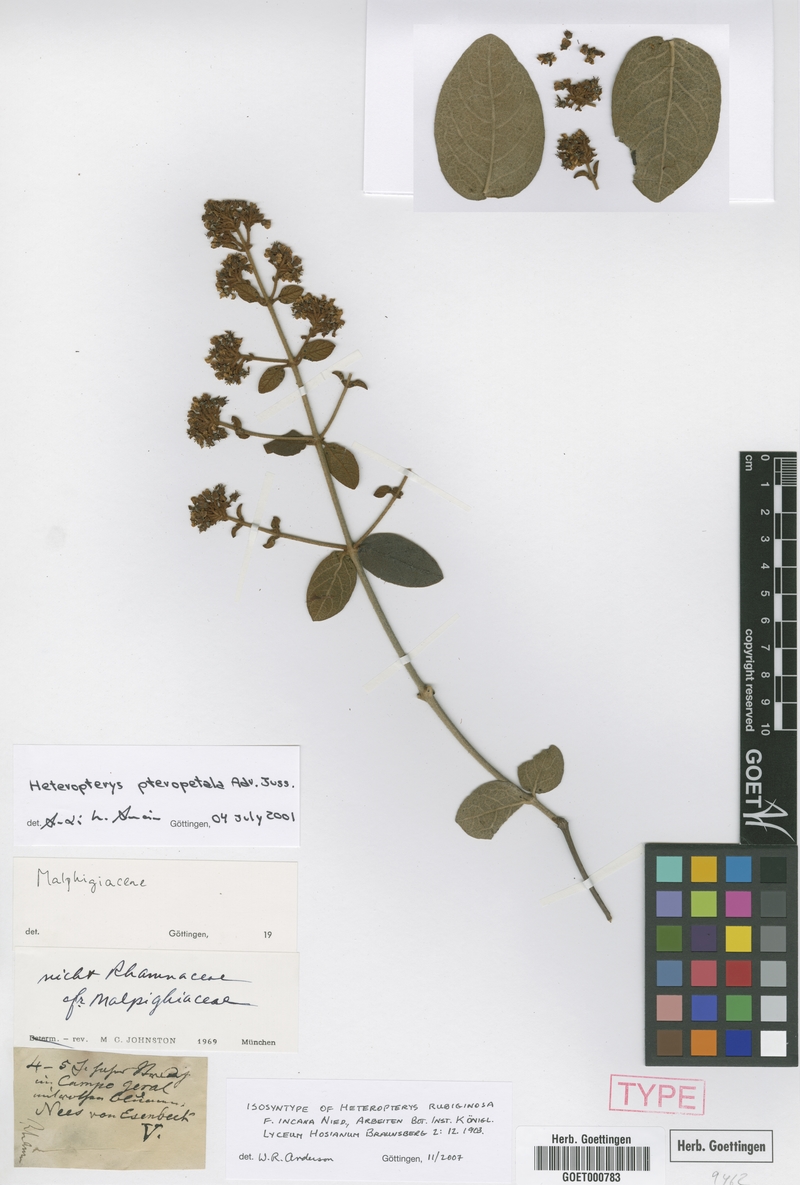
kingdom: Plantae
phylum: Tracheophyta
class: Magnoliopsida
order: Malpighiales
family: Malpighiaceae
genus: Heteropterys
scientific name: Heteropterys rubiginosa
